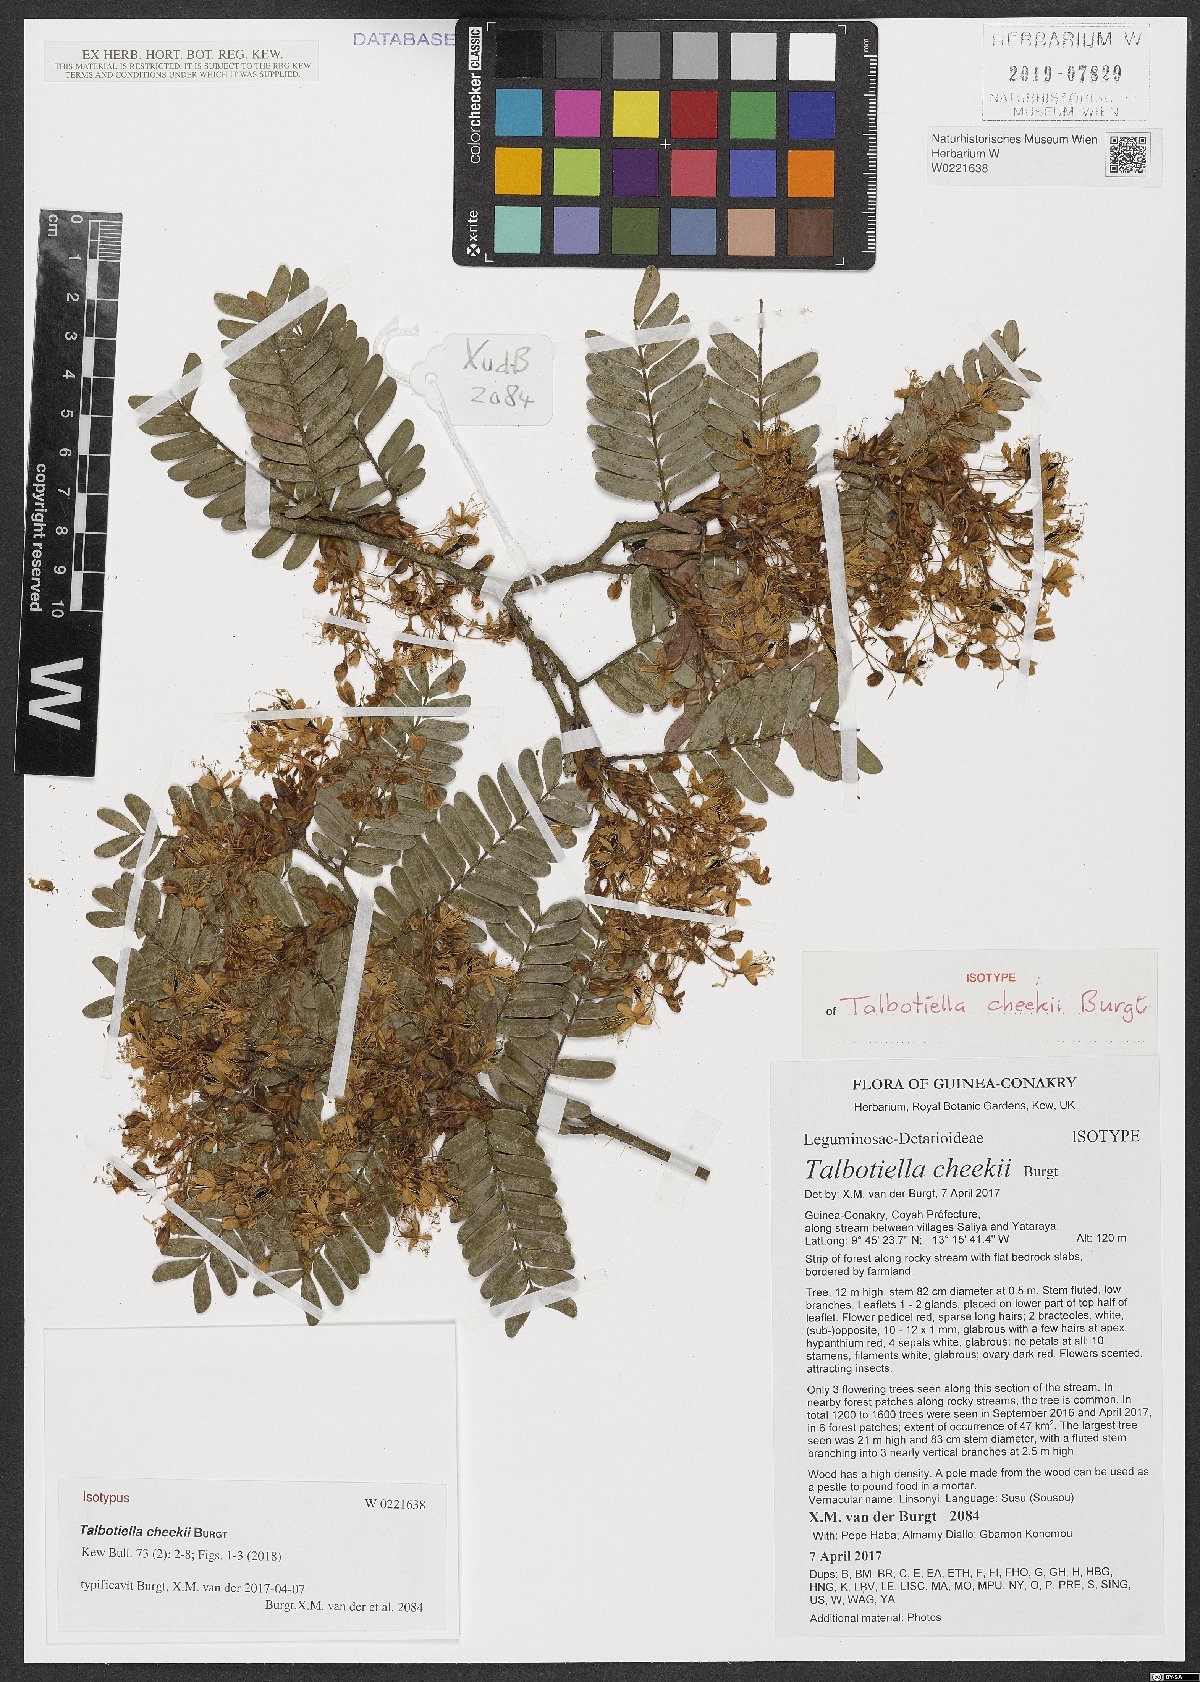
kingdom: Plantae
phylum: Tracheophyta
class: Magnoliopsida
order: Fabales
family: Fabaceae
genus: Talbotiella
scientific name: Talbotiella cheekii
